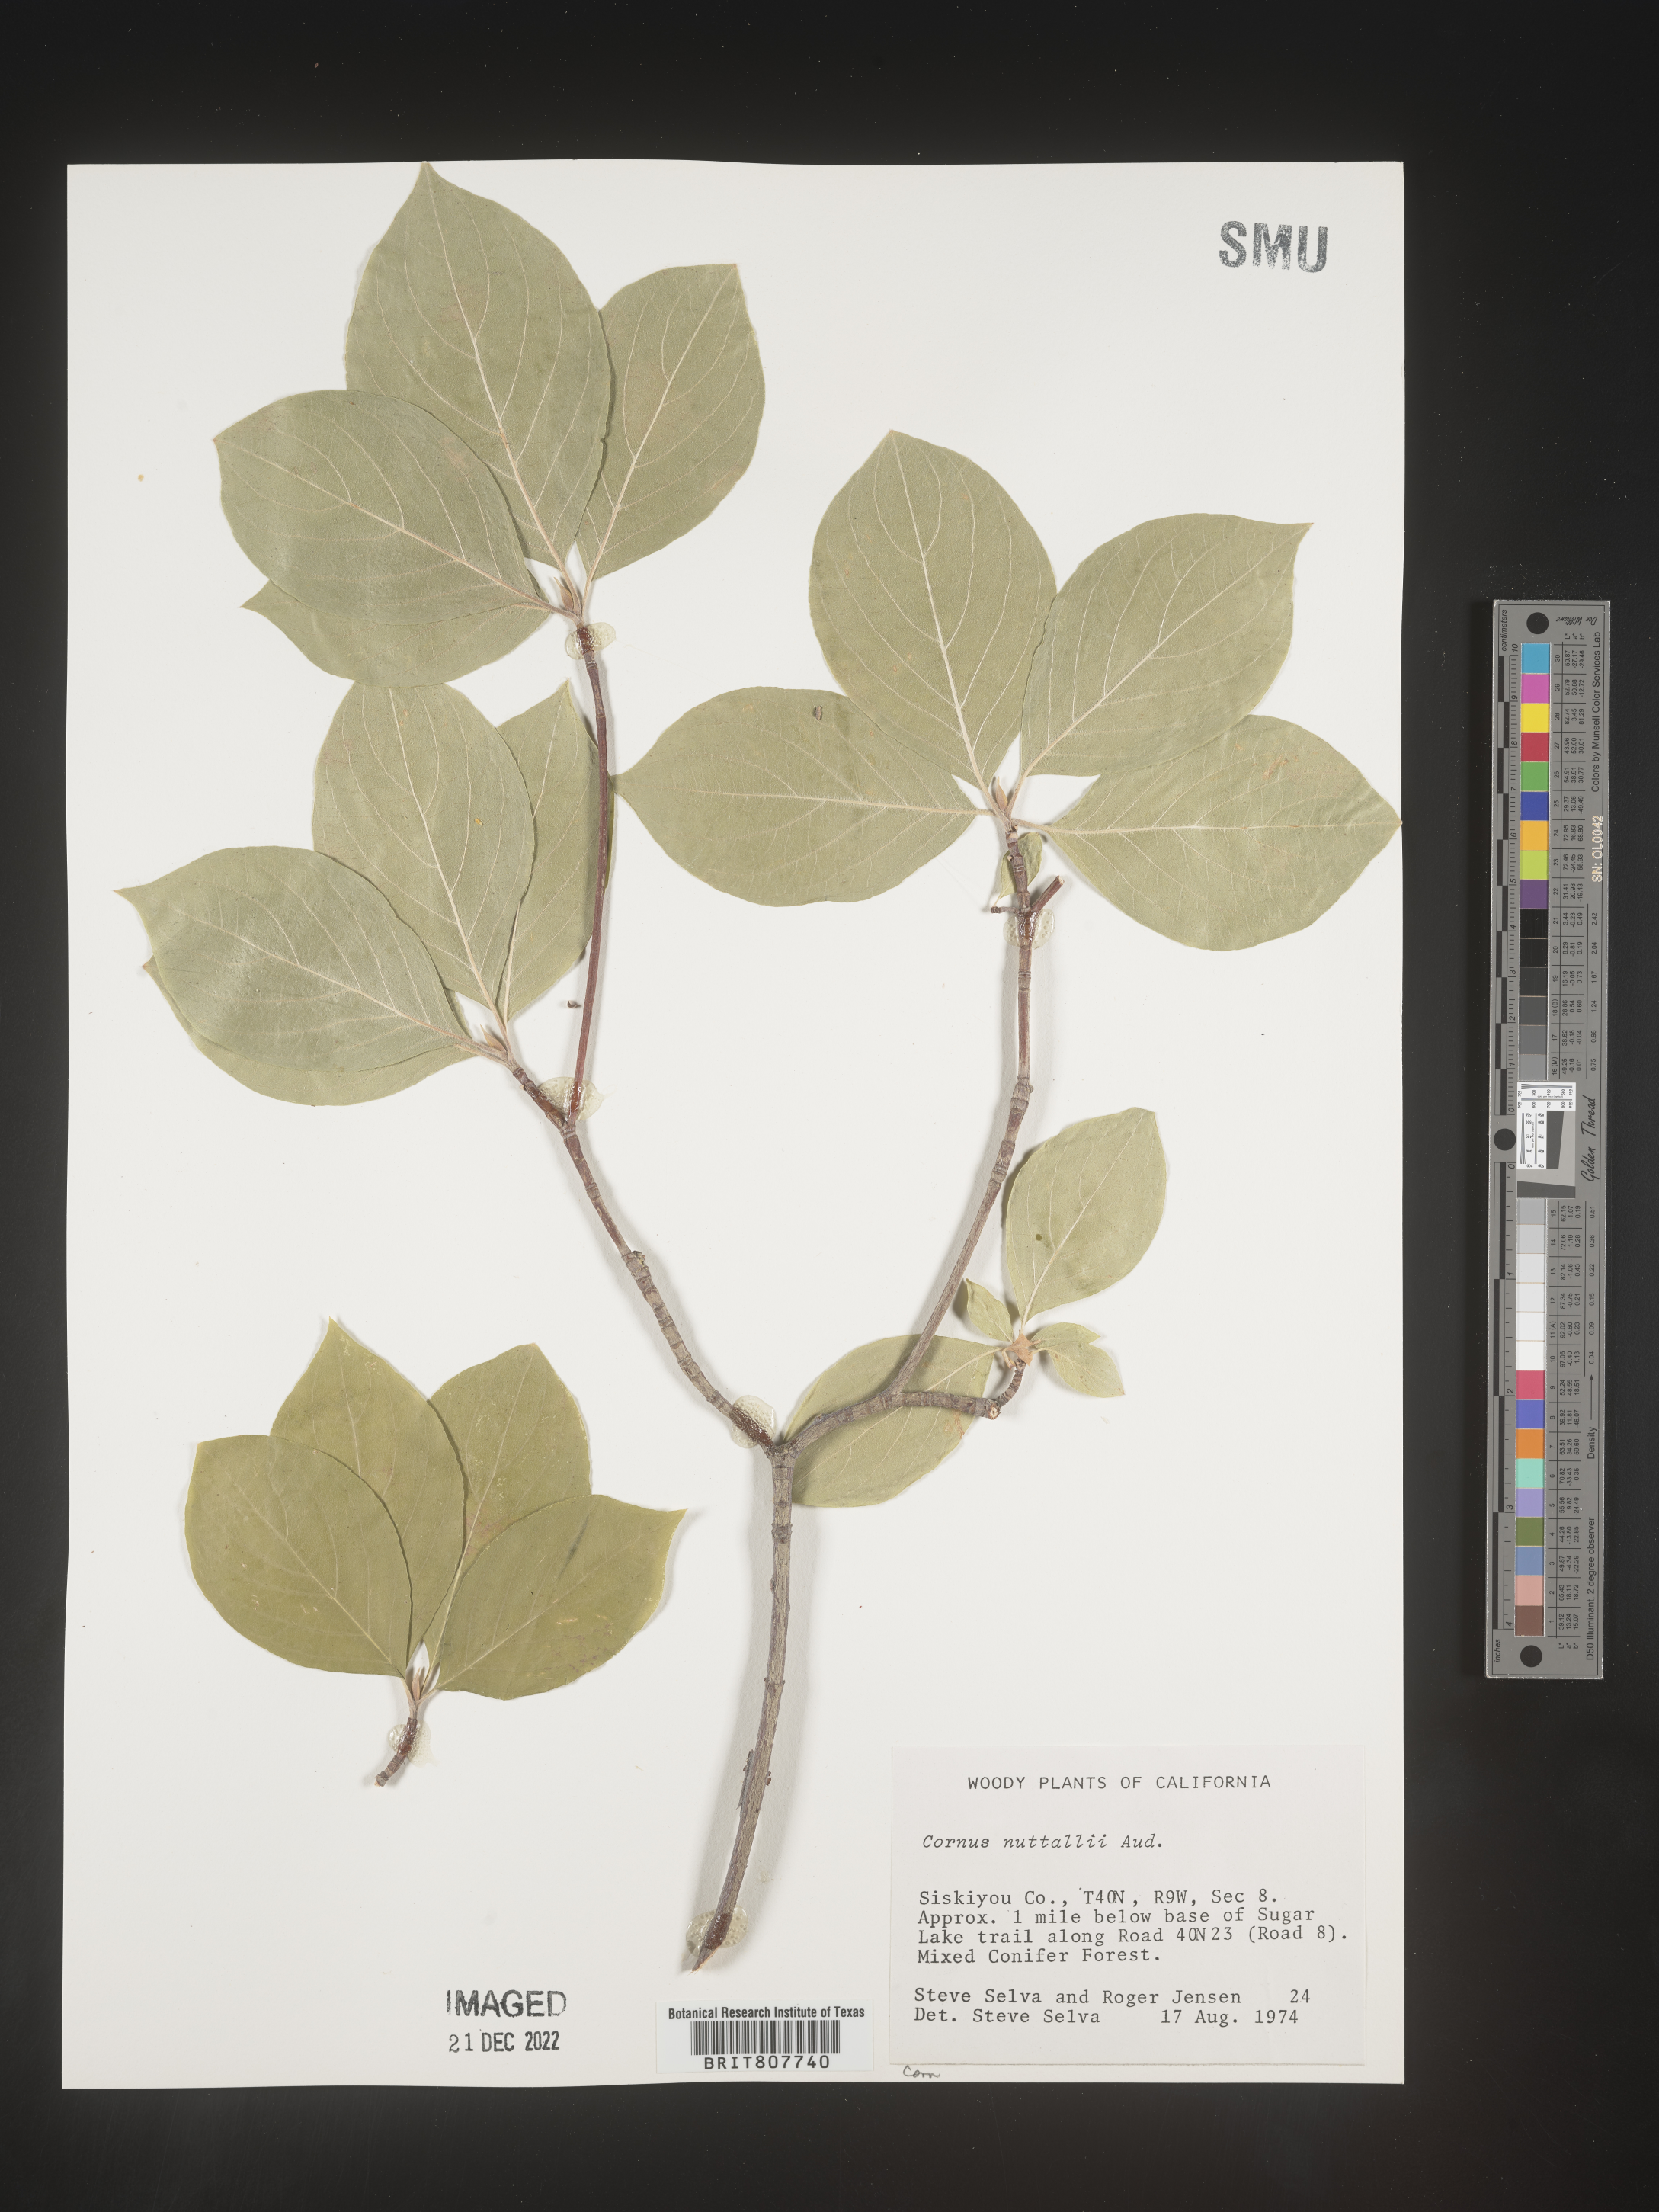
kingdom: Plantae
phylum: Tracheophyta
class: Magnoliopsida
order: Cornales
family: Cornaceae
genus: Cornus
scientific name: Cornus nuttallii
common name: Pacific dogwood
